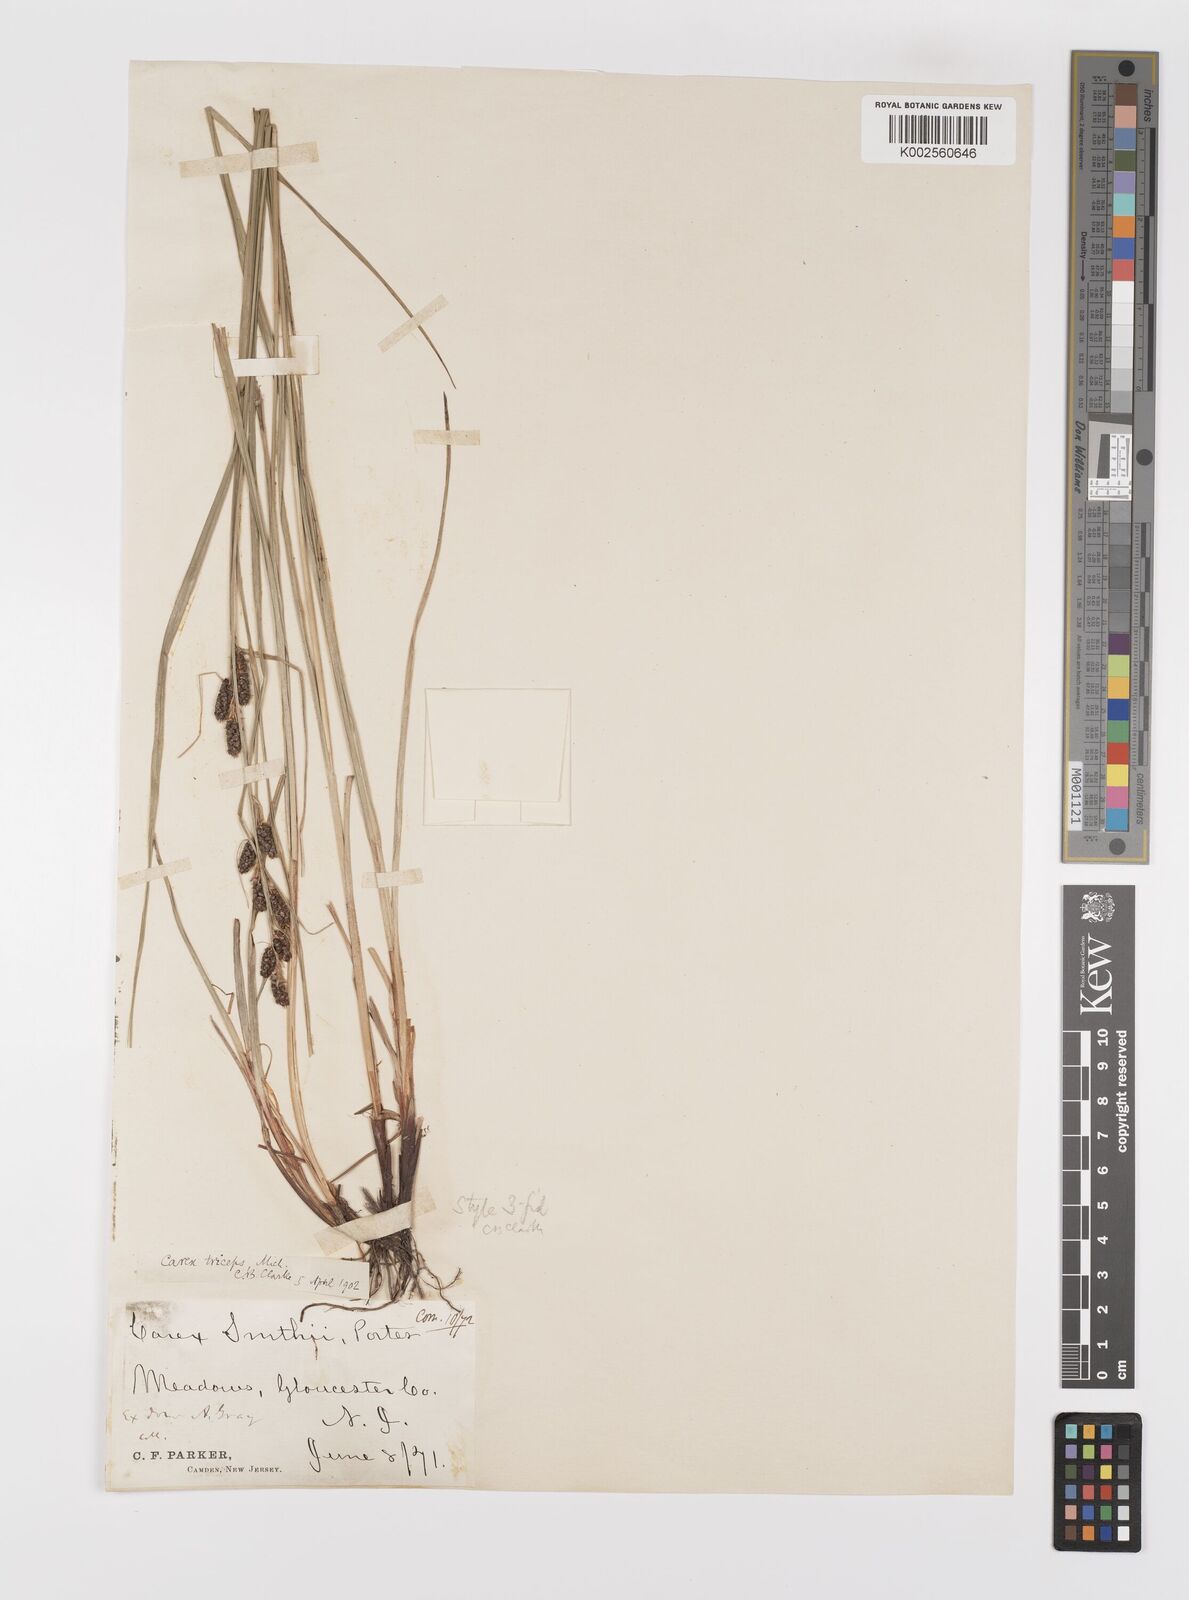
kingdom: Plantae
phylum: Tracheophyta
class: Liliopsida
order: Poales
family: Cyperaceae
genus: Carex
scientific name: Carex caroliniana
